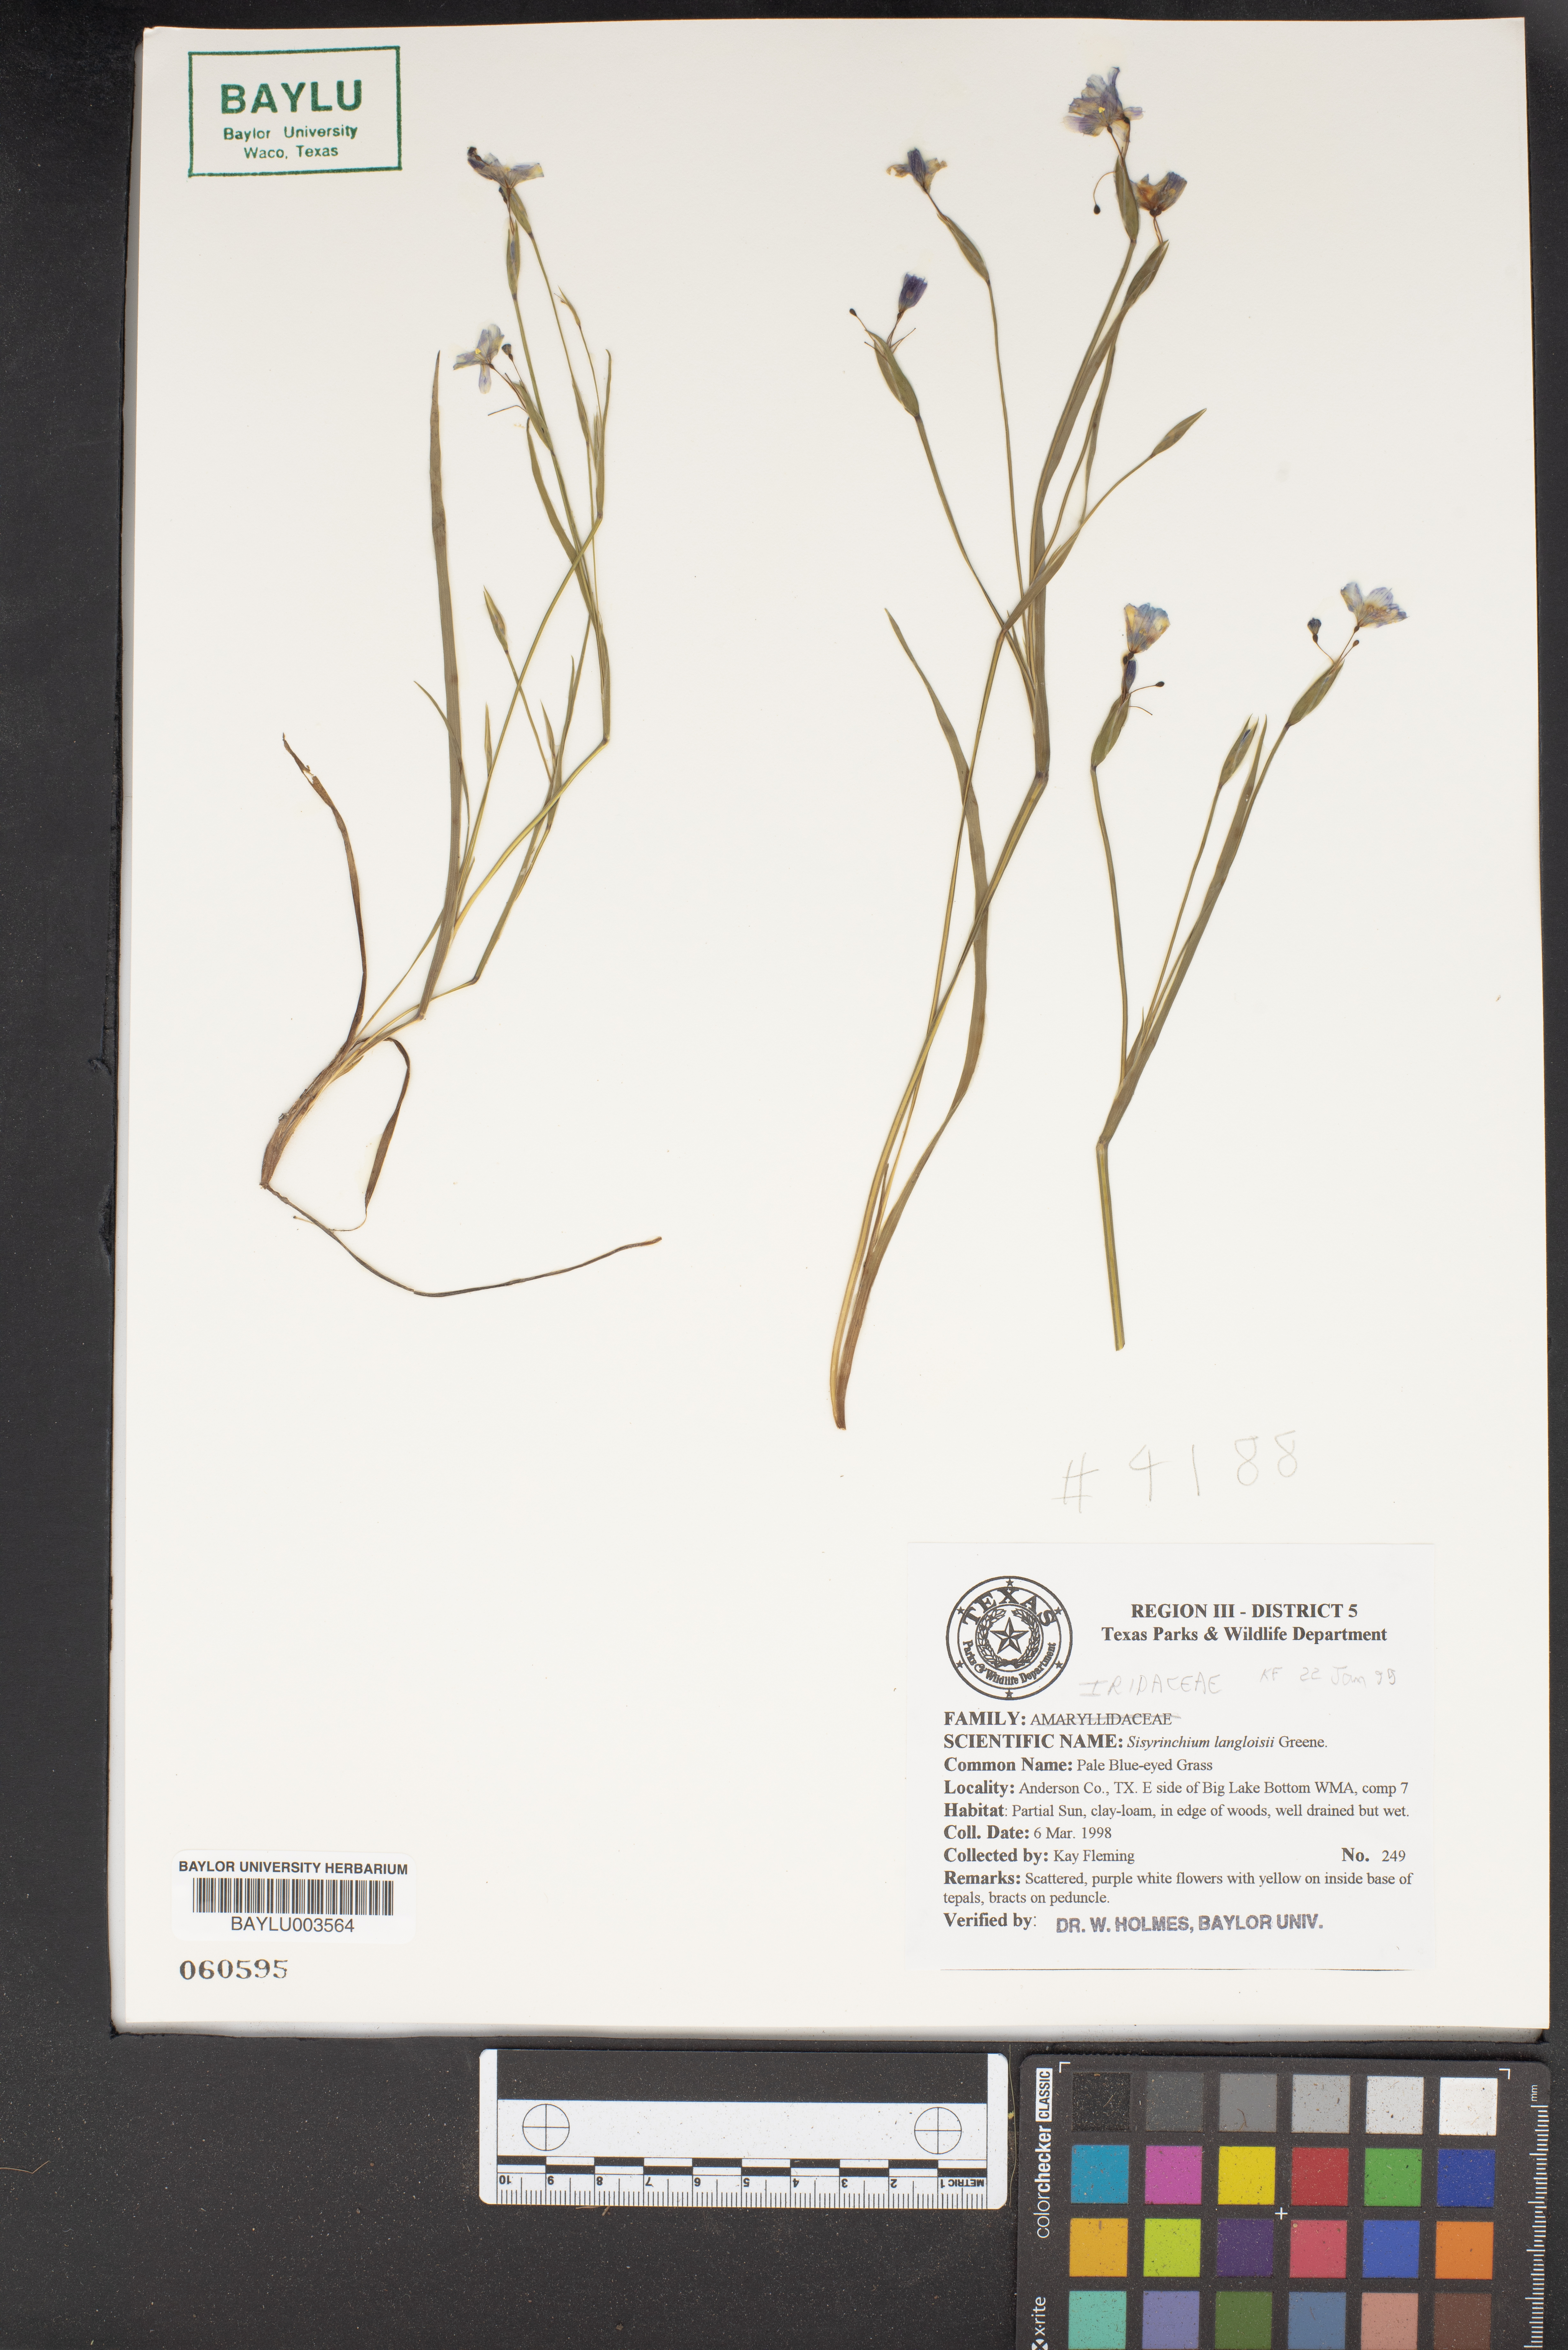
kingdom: Plantae
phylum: Tracheophyta
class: Liliopsida
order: Asparagales
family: Iridaceae
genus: Sisyrinchium
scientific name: Sisyrinchium langloisii
